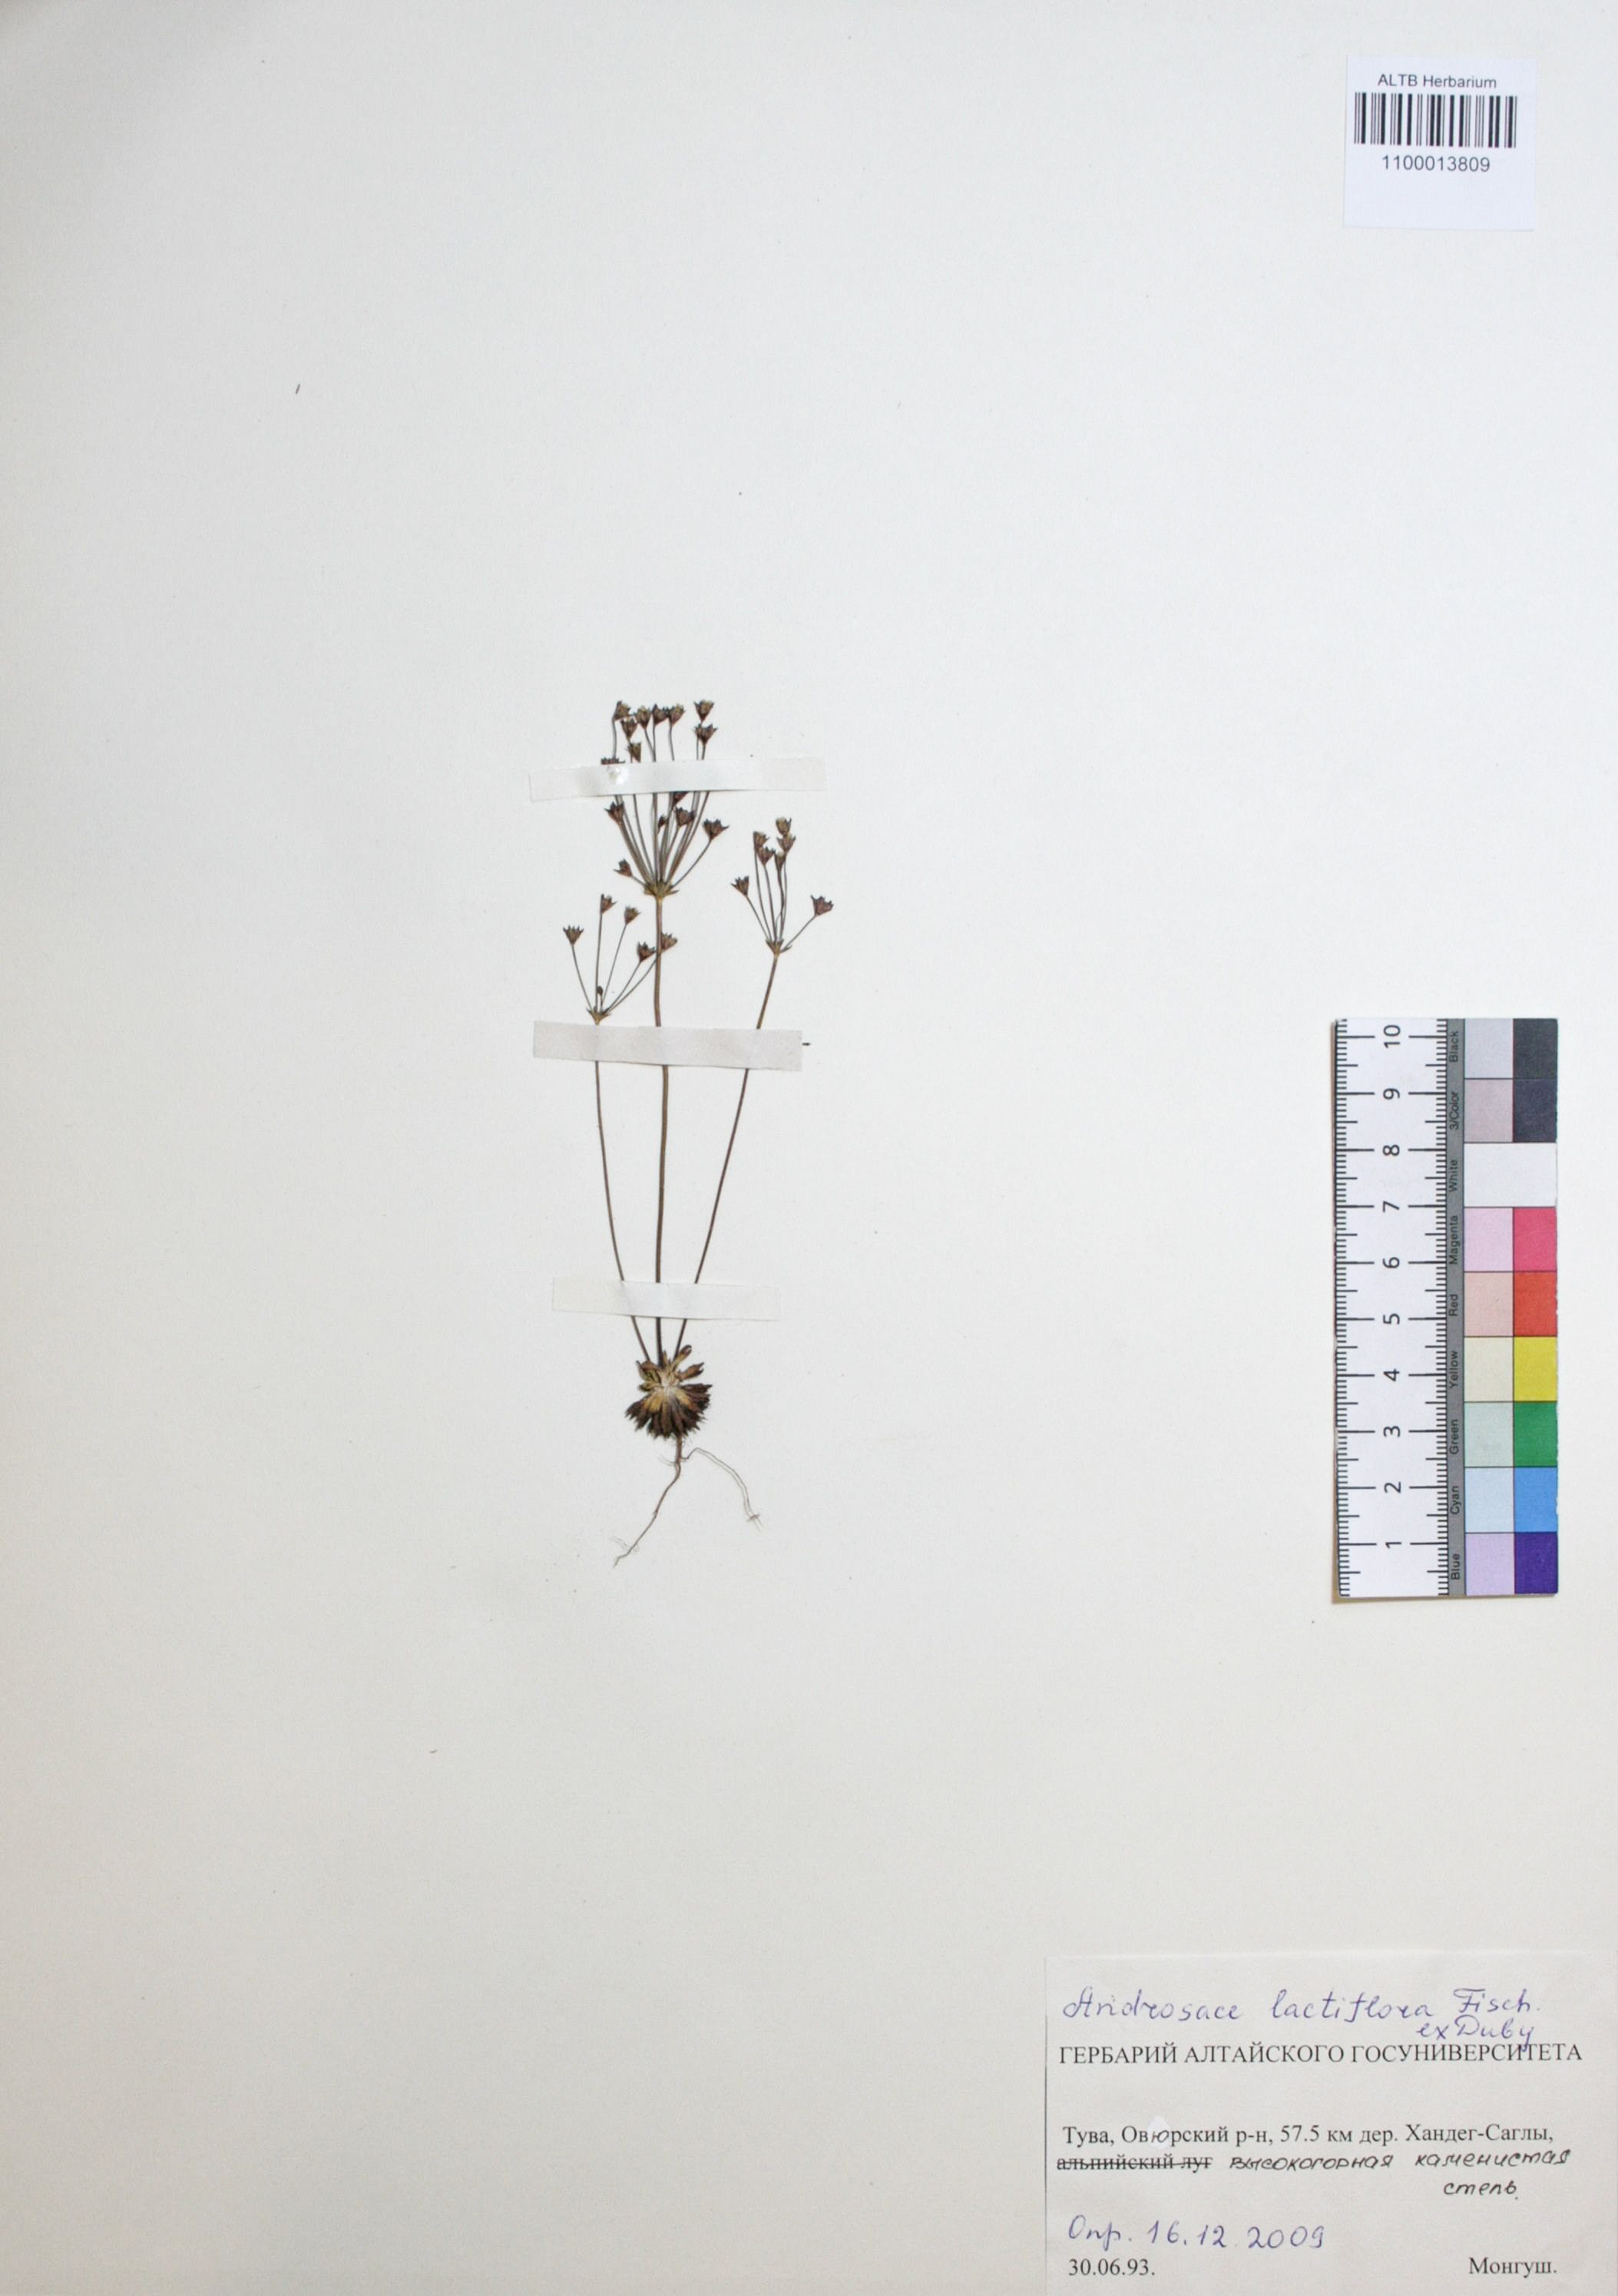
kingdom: Plantae
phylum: Tracheophyta
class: Magnoliopsida
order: Ericales
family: Primulaceae
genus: Androsace
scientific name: Androsace lactiflora
